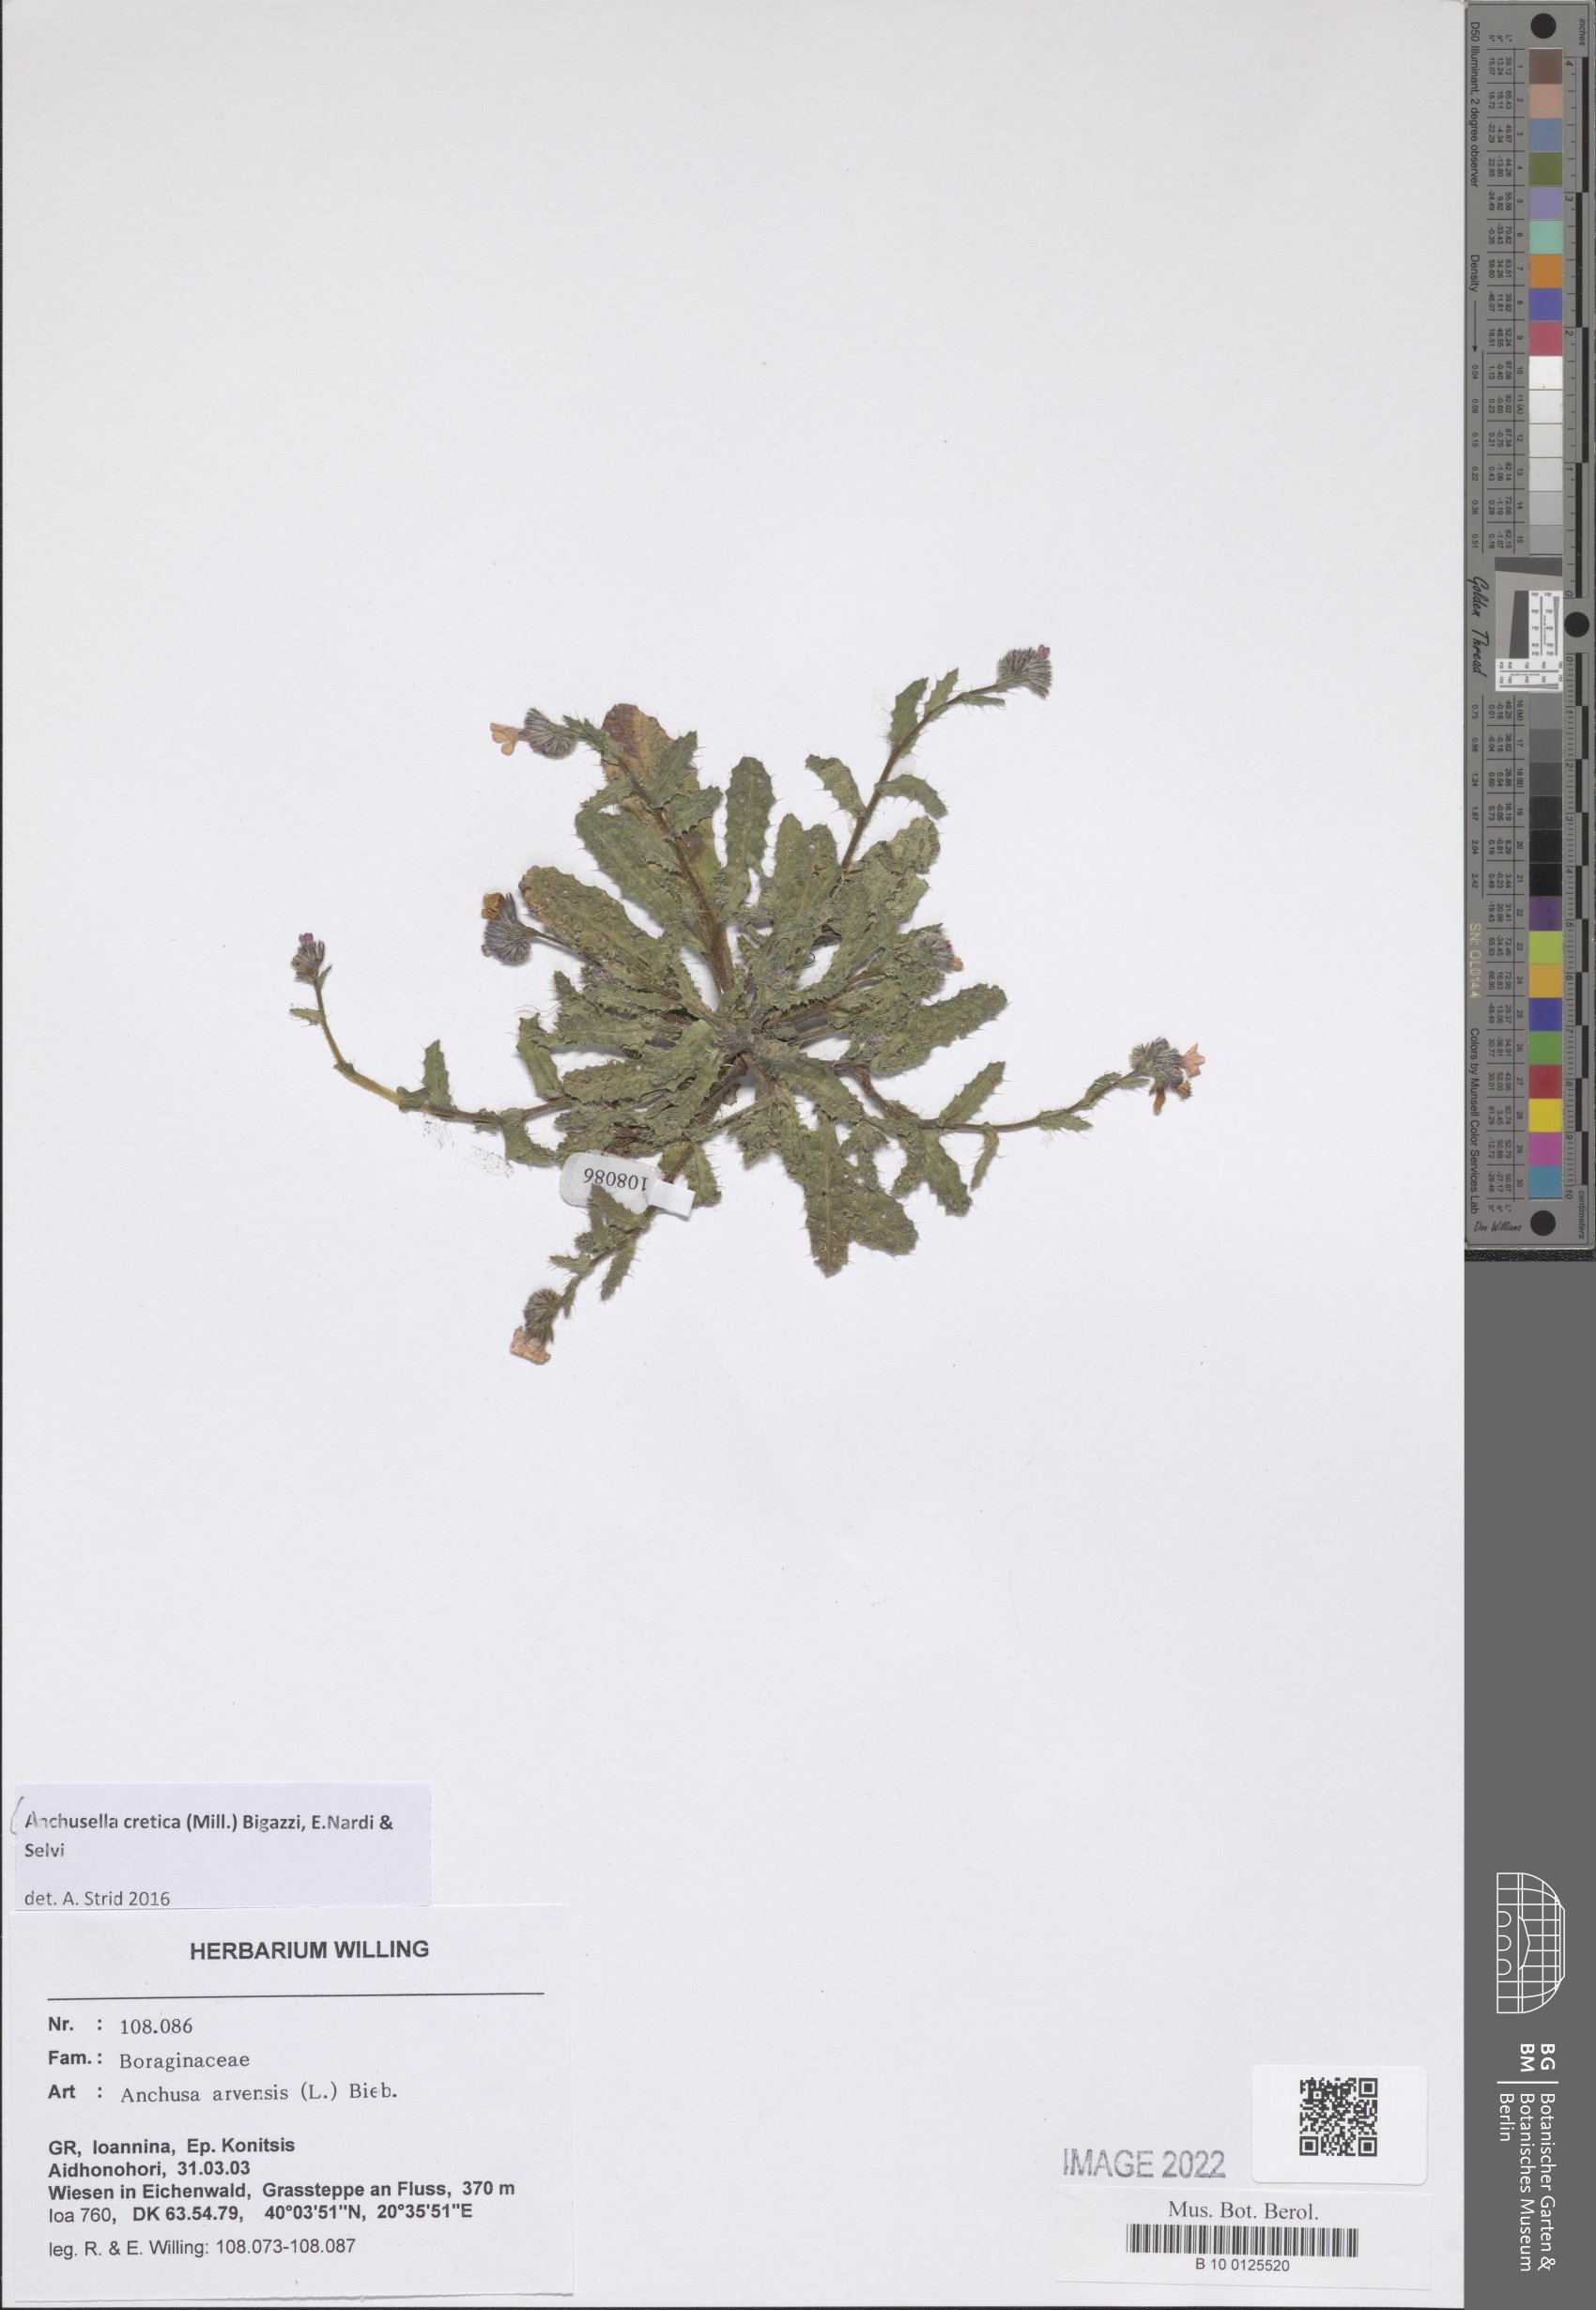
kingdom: Plantae
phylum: Tracheophyta
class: Magnoliopsida
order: Boraginales
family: Boraginaceae
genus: Anchusella
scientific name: Anchusella cretica
